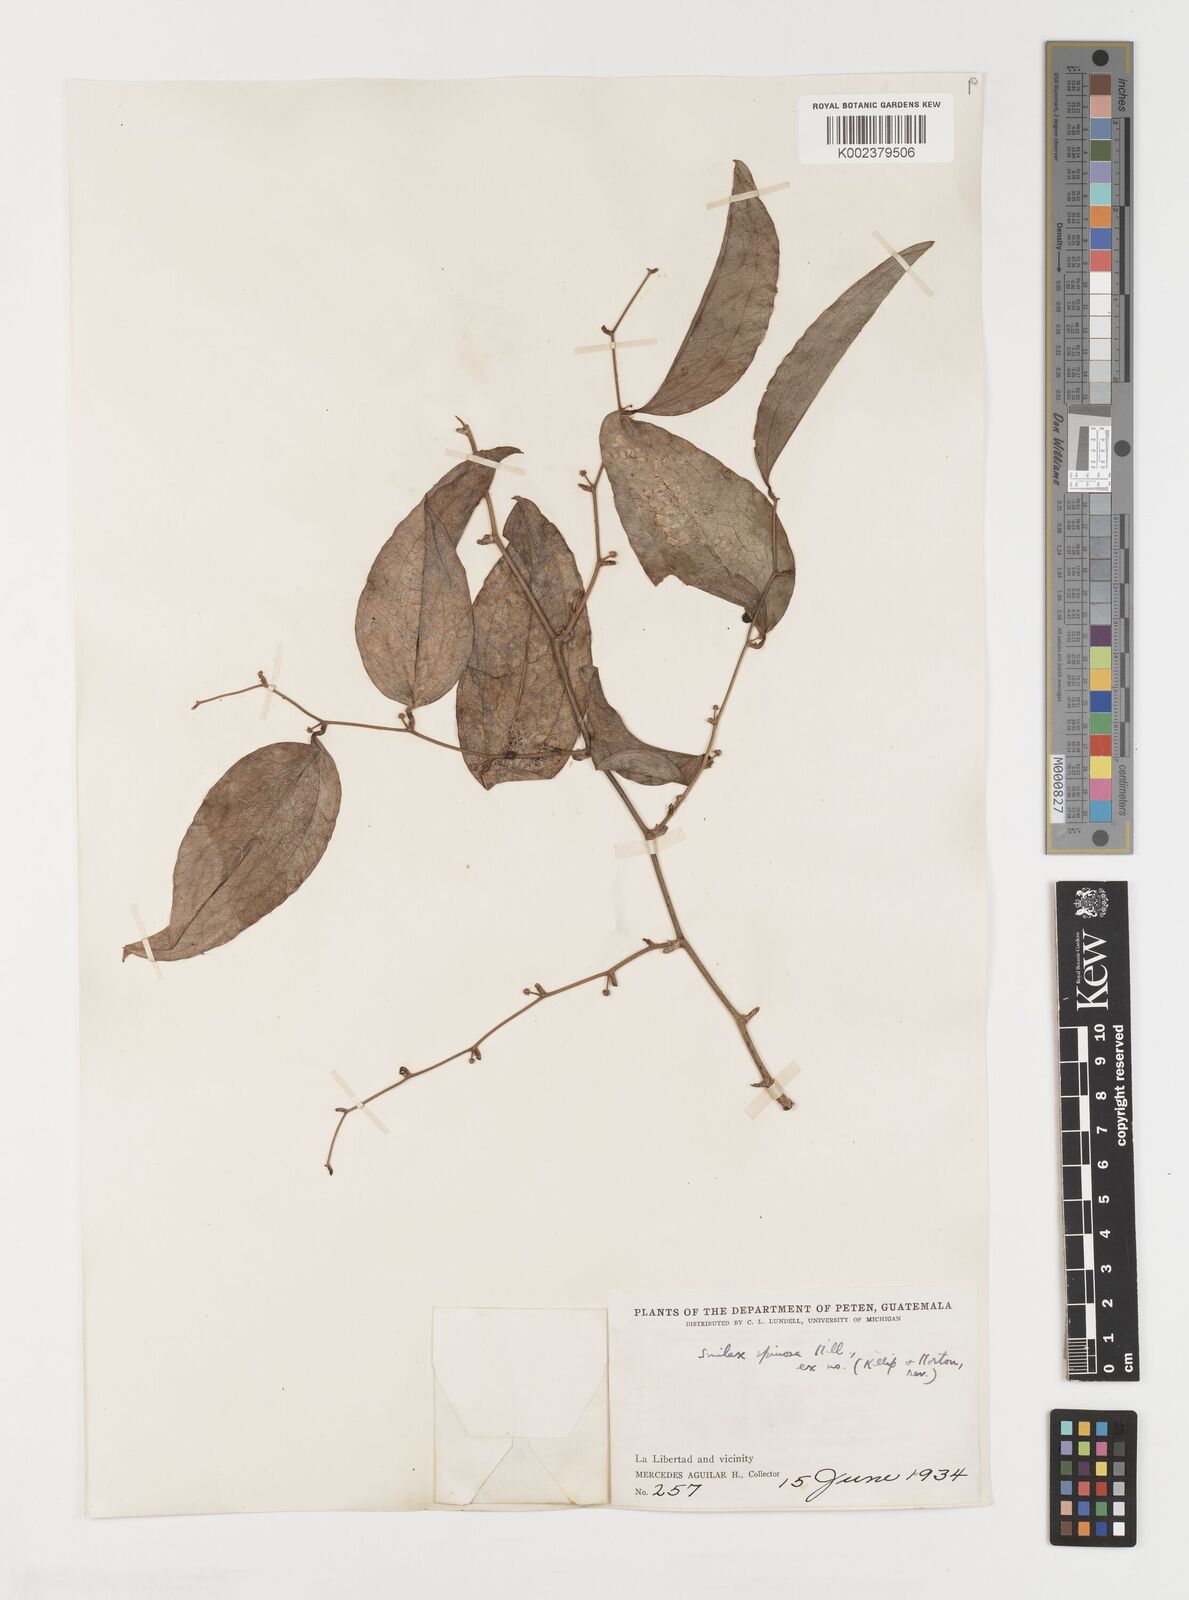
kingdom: Plantae
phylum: Tracheophyta
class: Liliopsida
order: Liliales
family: Smilacaceae
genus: Smilax
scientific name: Smilax spinosa
